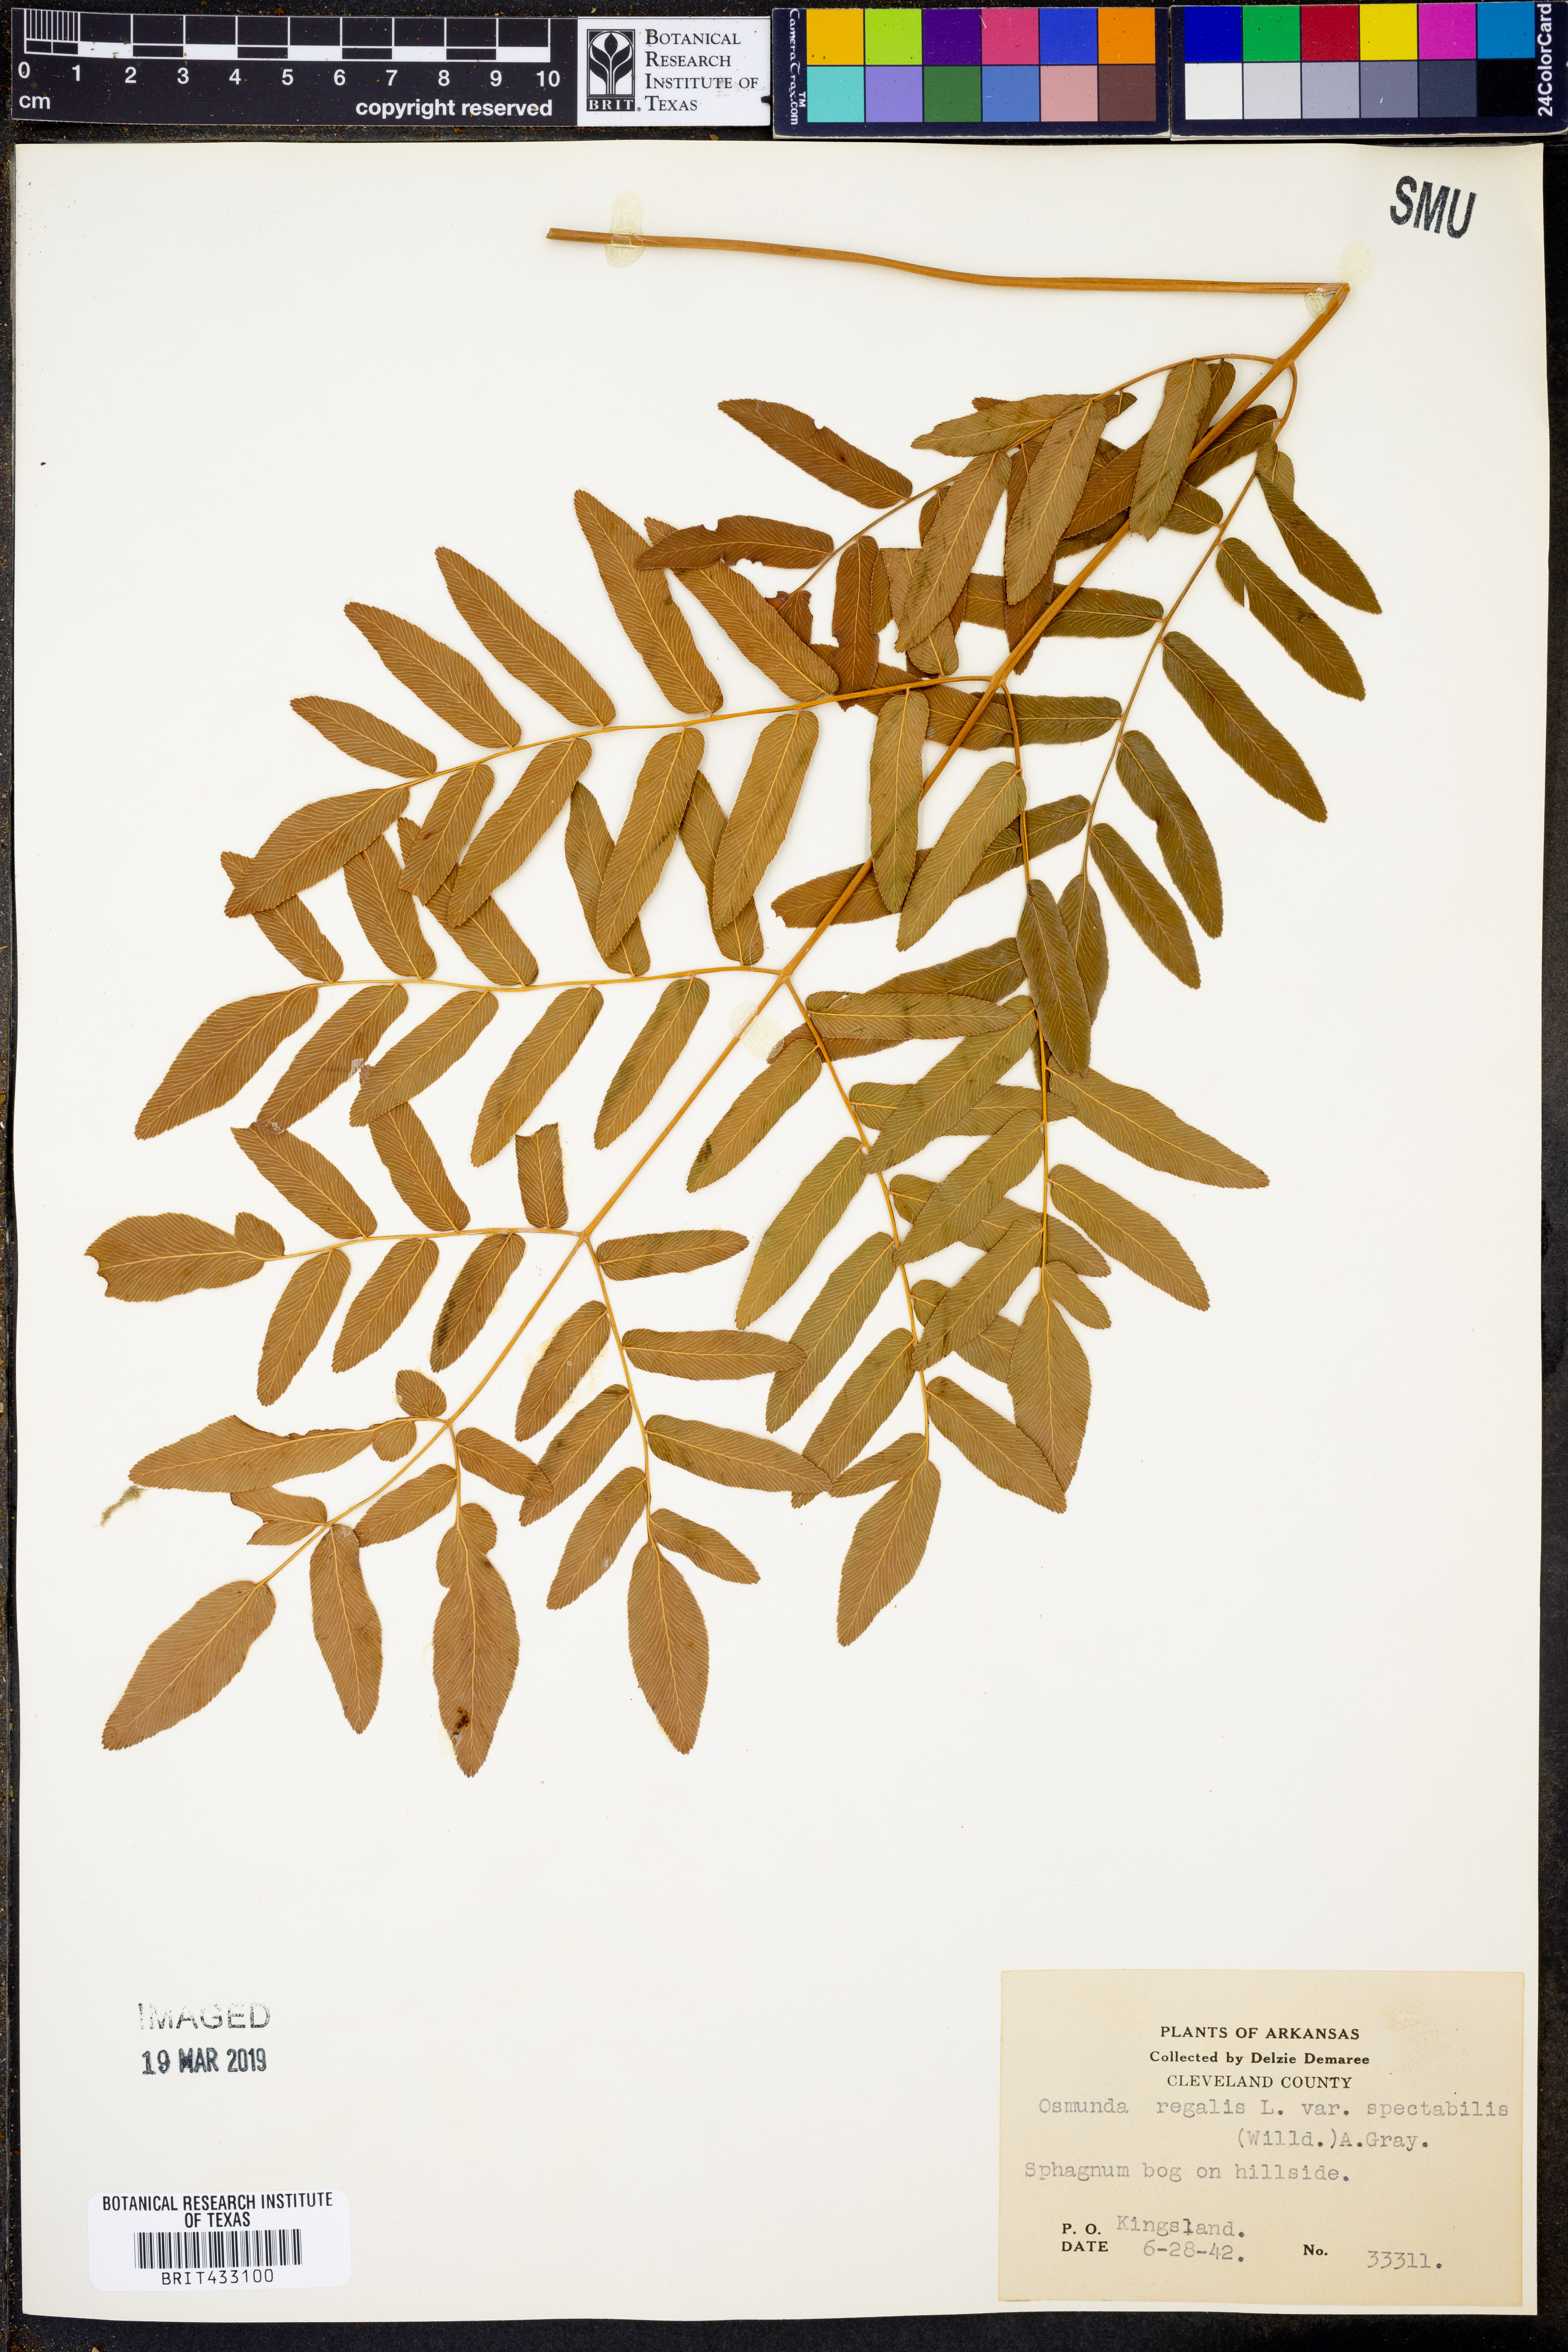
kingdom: Plantae
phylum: Tracheophyta
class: Polypodiopsida
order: Osmundales
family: Osmundaceae
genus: Osmunda
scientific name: Osmunda spectabilis
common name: American royal fern
